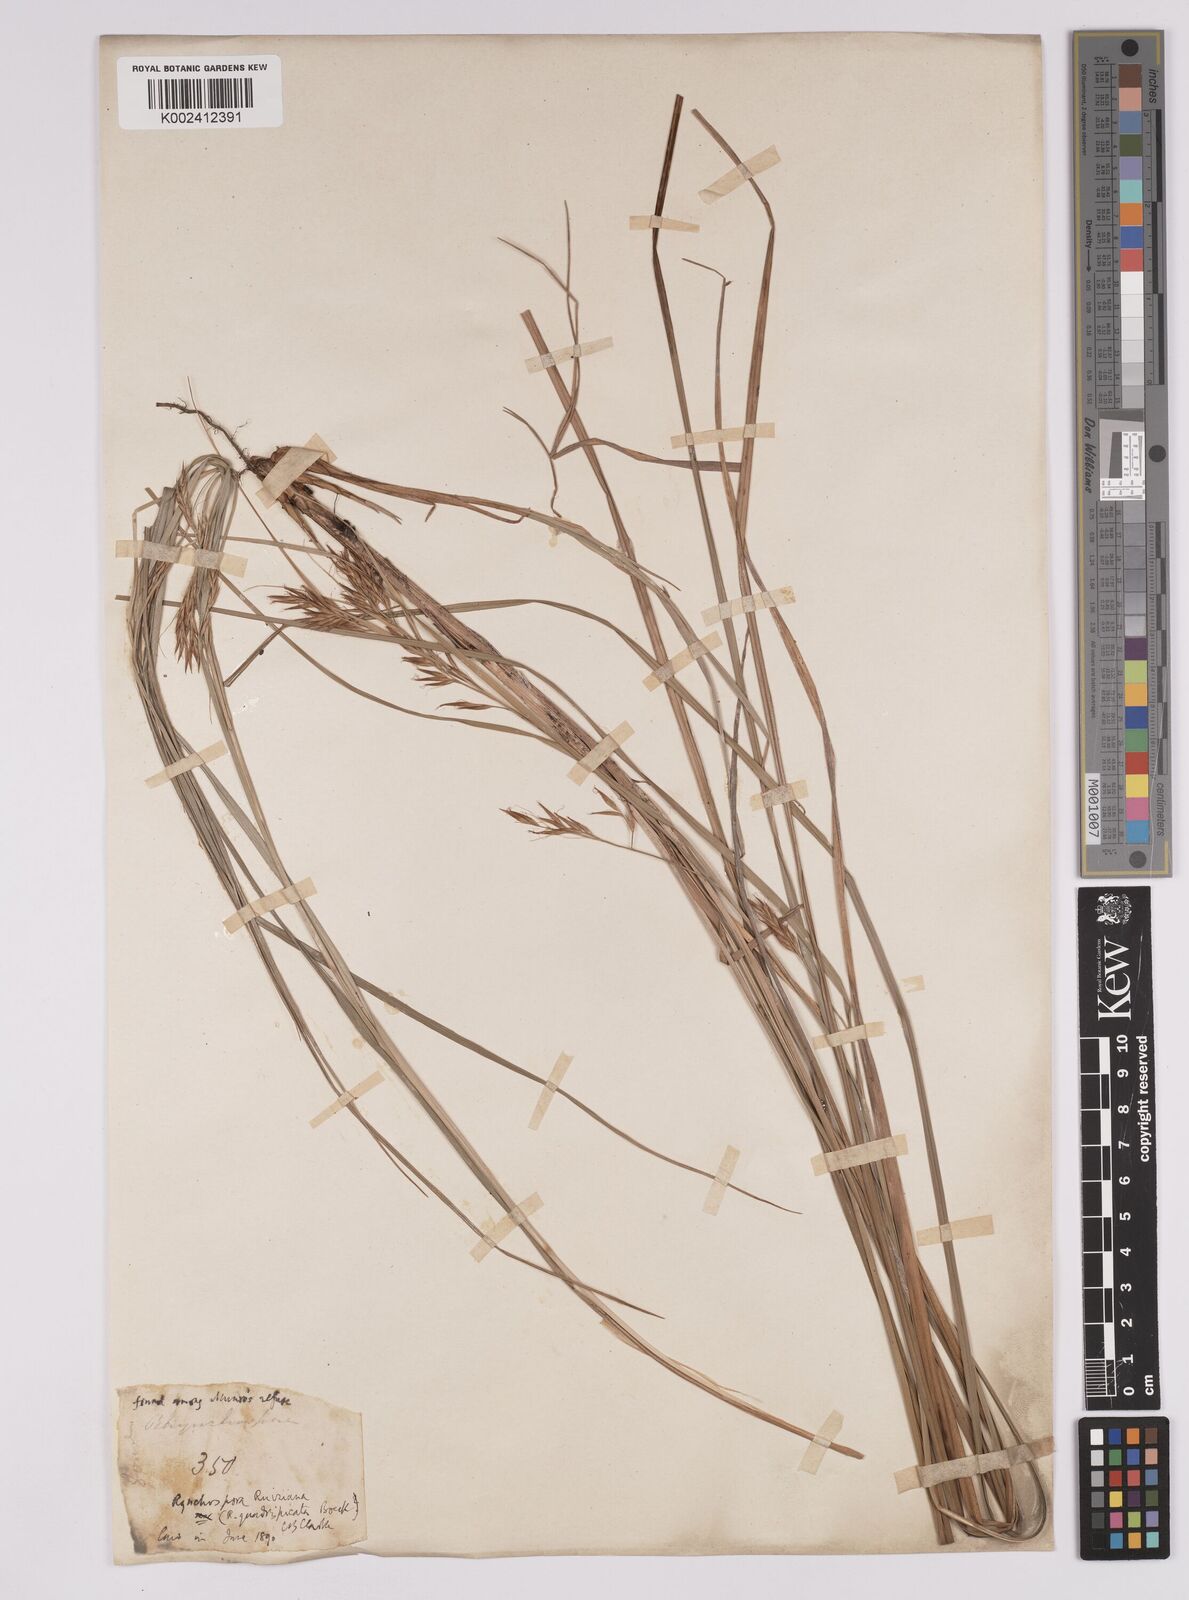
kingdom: Plantae
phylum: Tracheophyta
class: Liliopsida
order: Poales
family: Cyperaceae
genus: Rhynchospora
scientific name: Rhynchospora ruiziana
